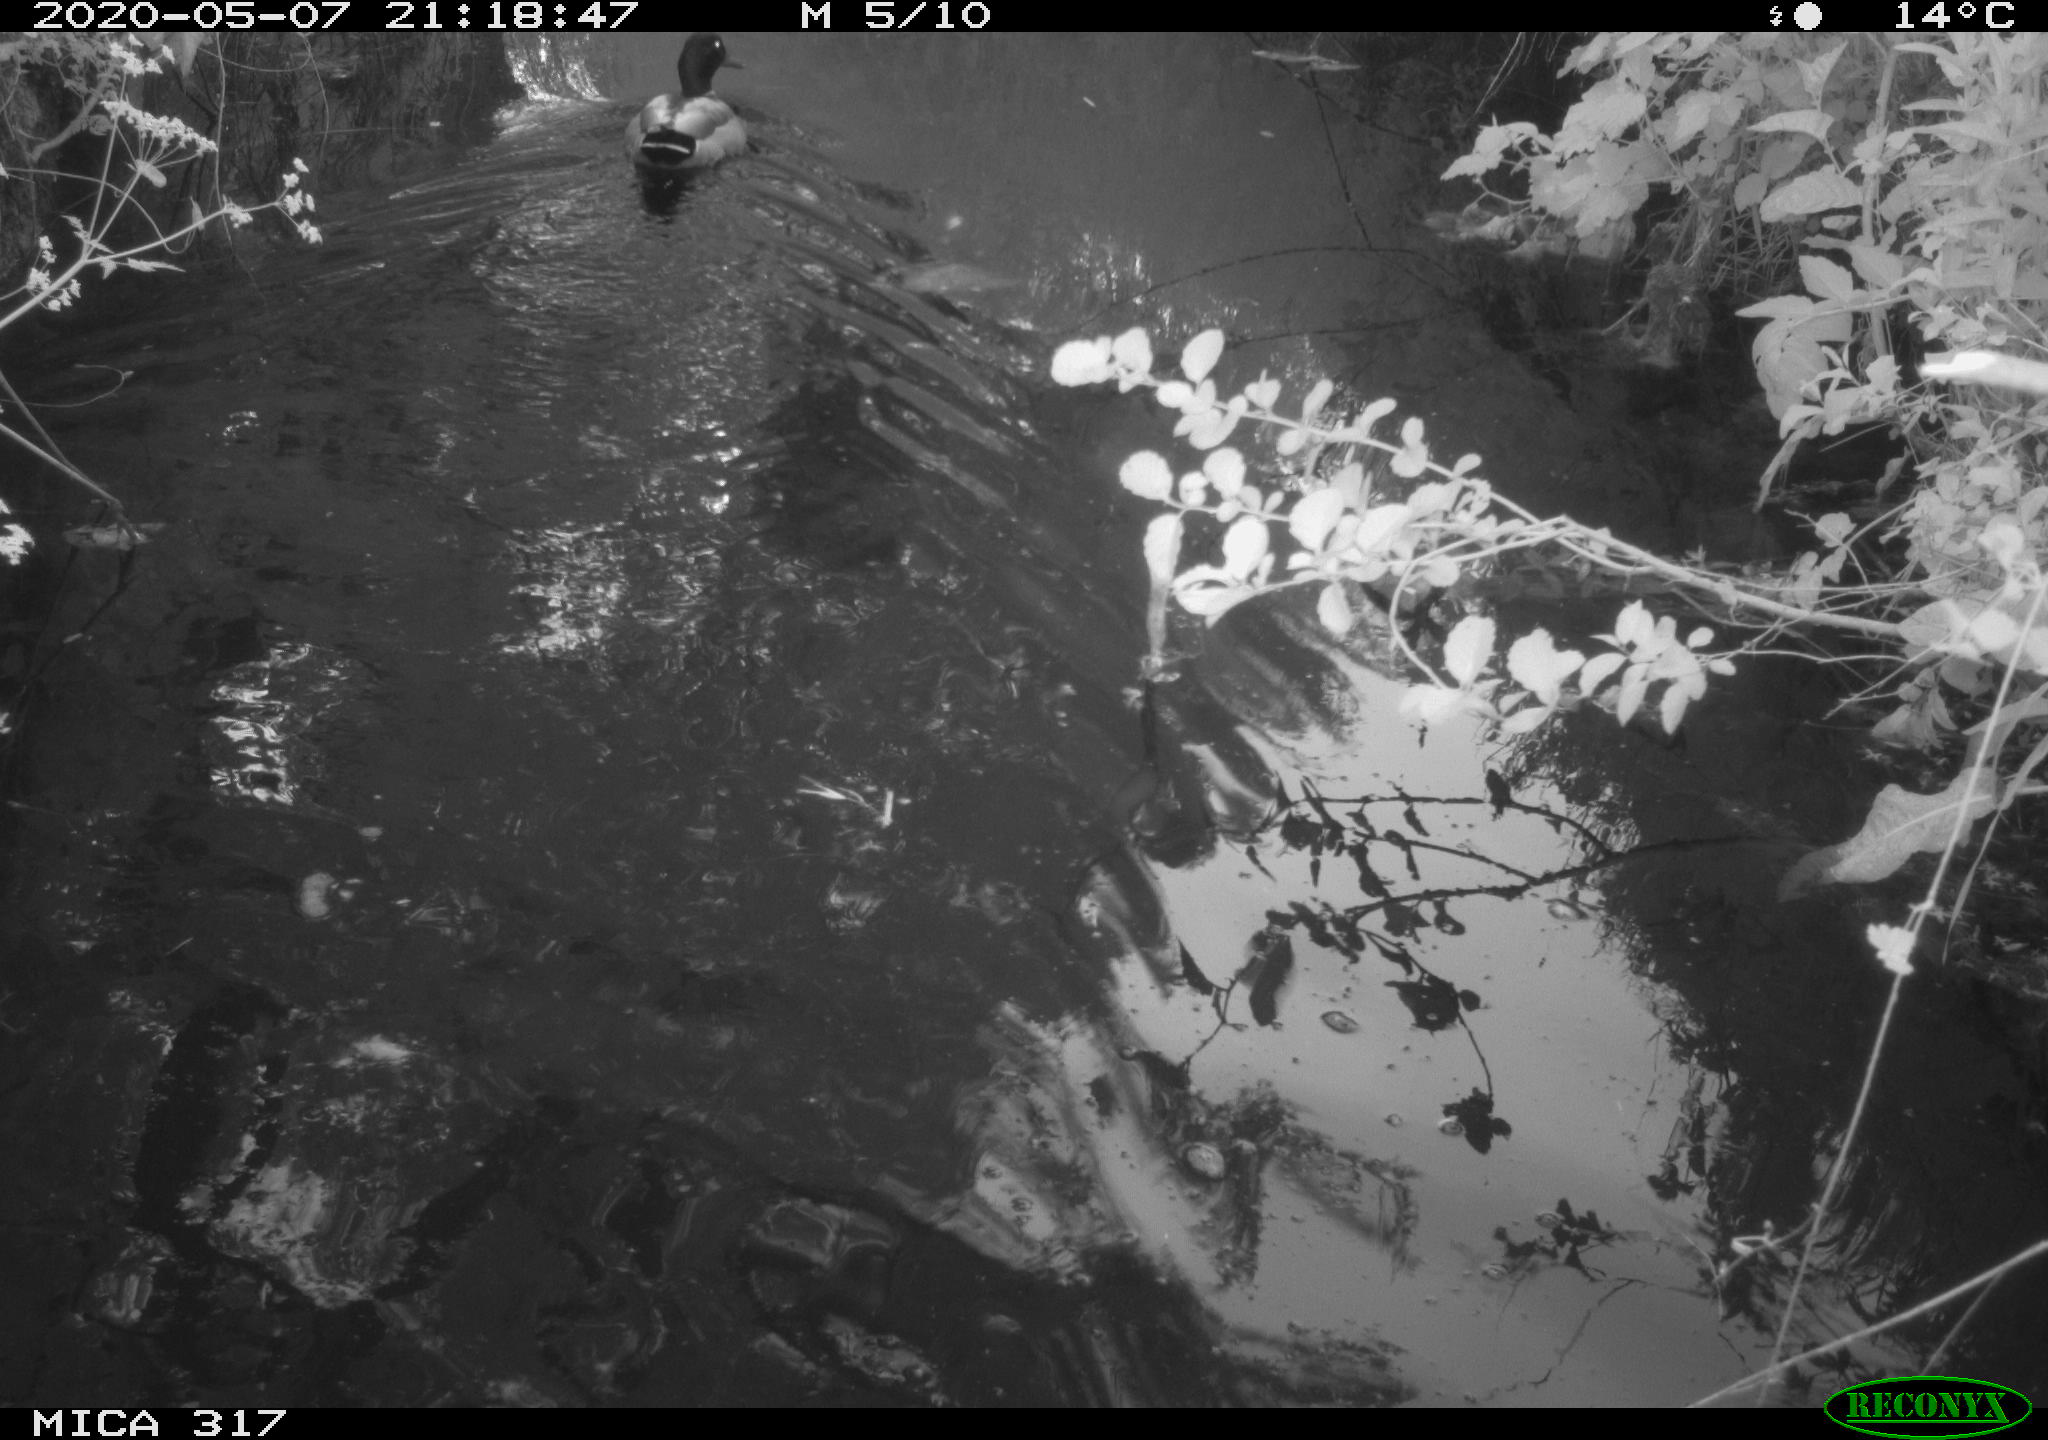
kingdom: Animalia
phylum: Chordata
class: Aves
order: Anseriformes
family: Anatidae
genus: Anas
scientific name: Anas platyrhynchos
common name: Mallard
